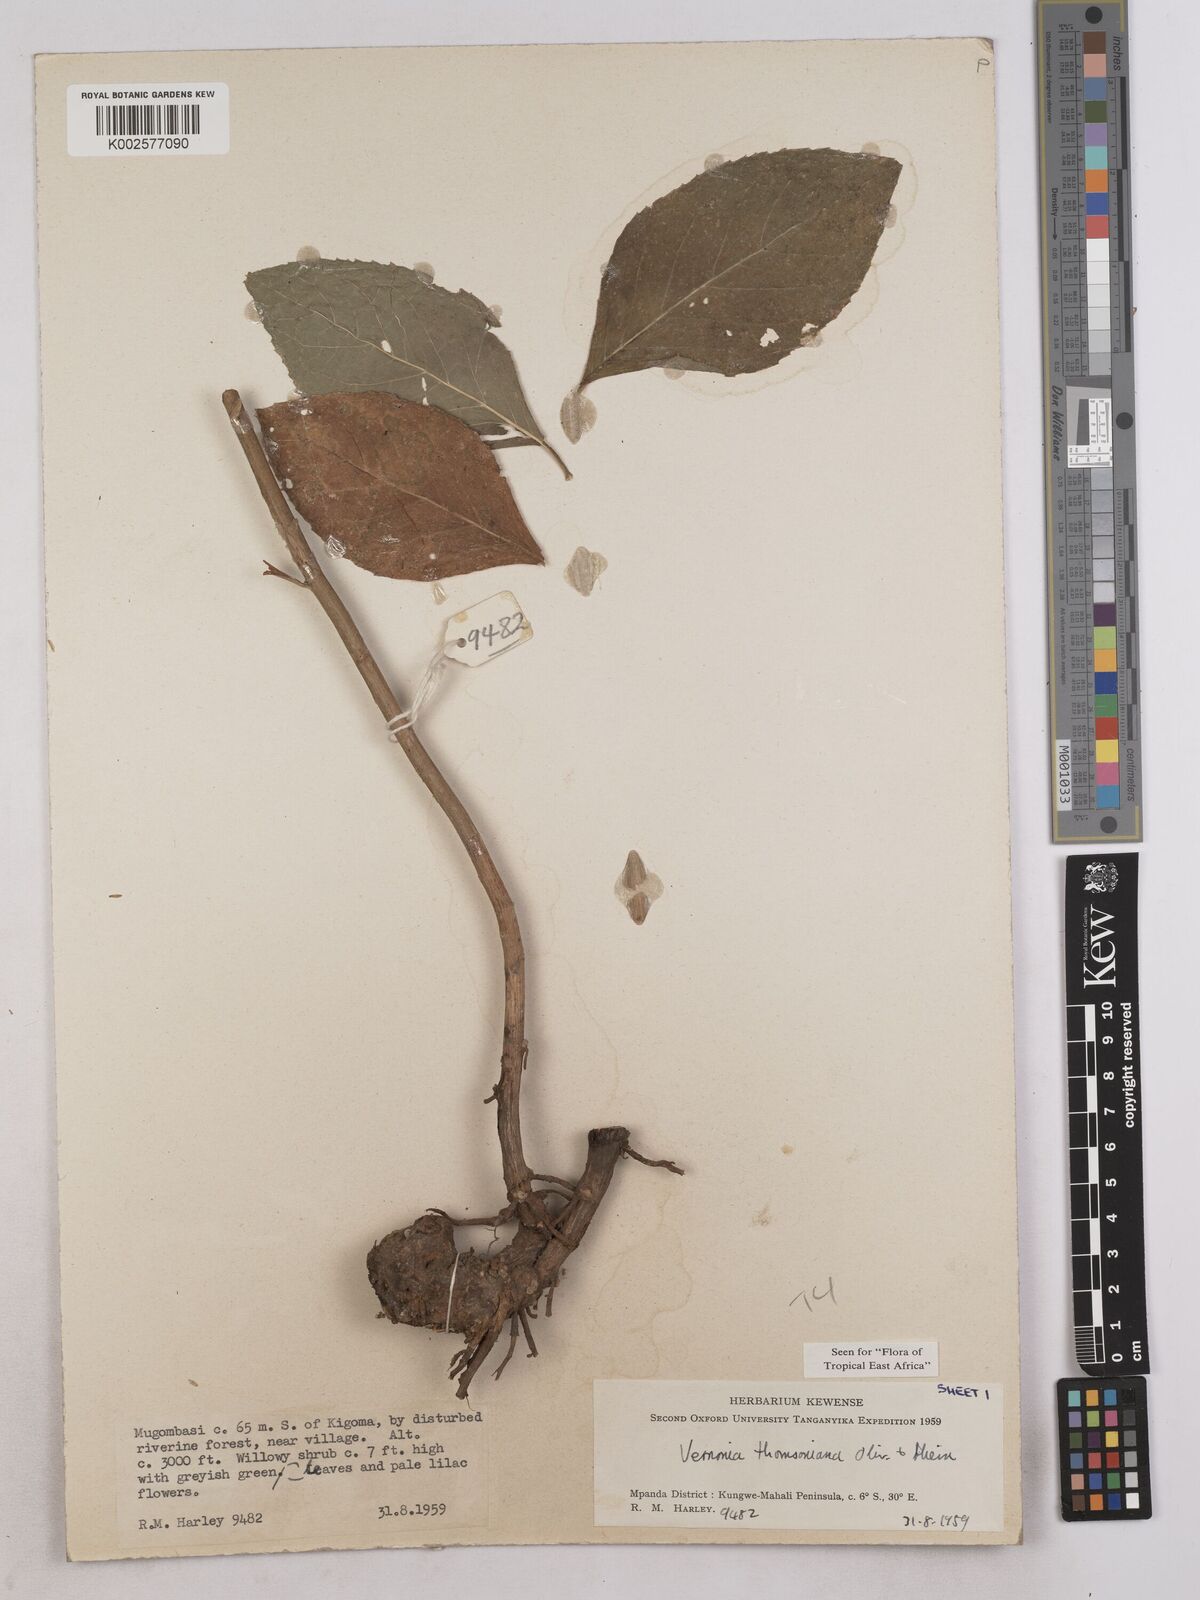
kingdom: Plantae
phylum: Tracheophyta
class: Magnoliopsida
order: Asterales
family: Asteraceae
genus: Gymnanthemum
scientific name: Gymnanthemum thomsonianum
